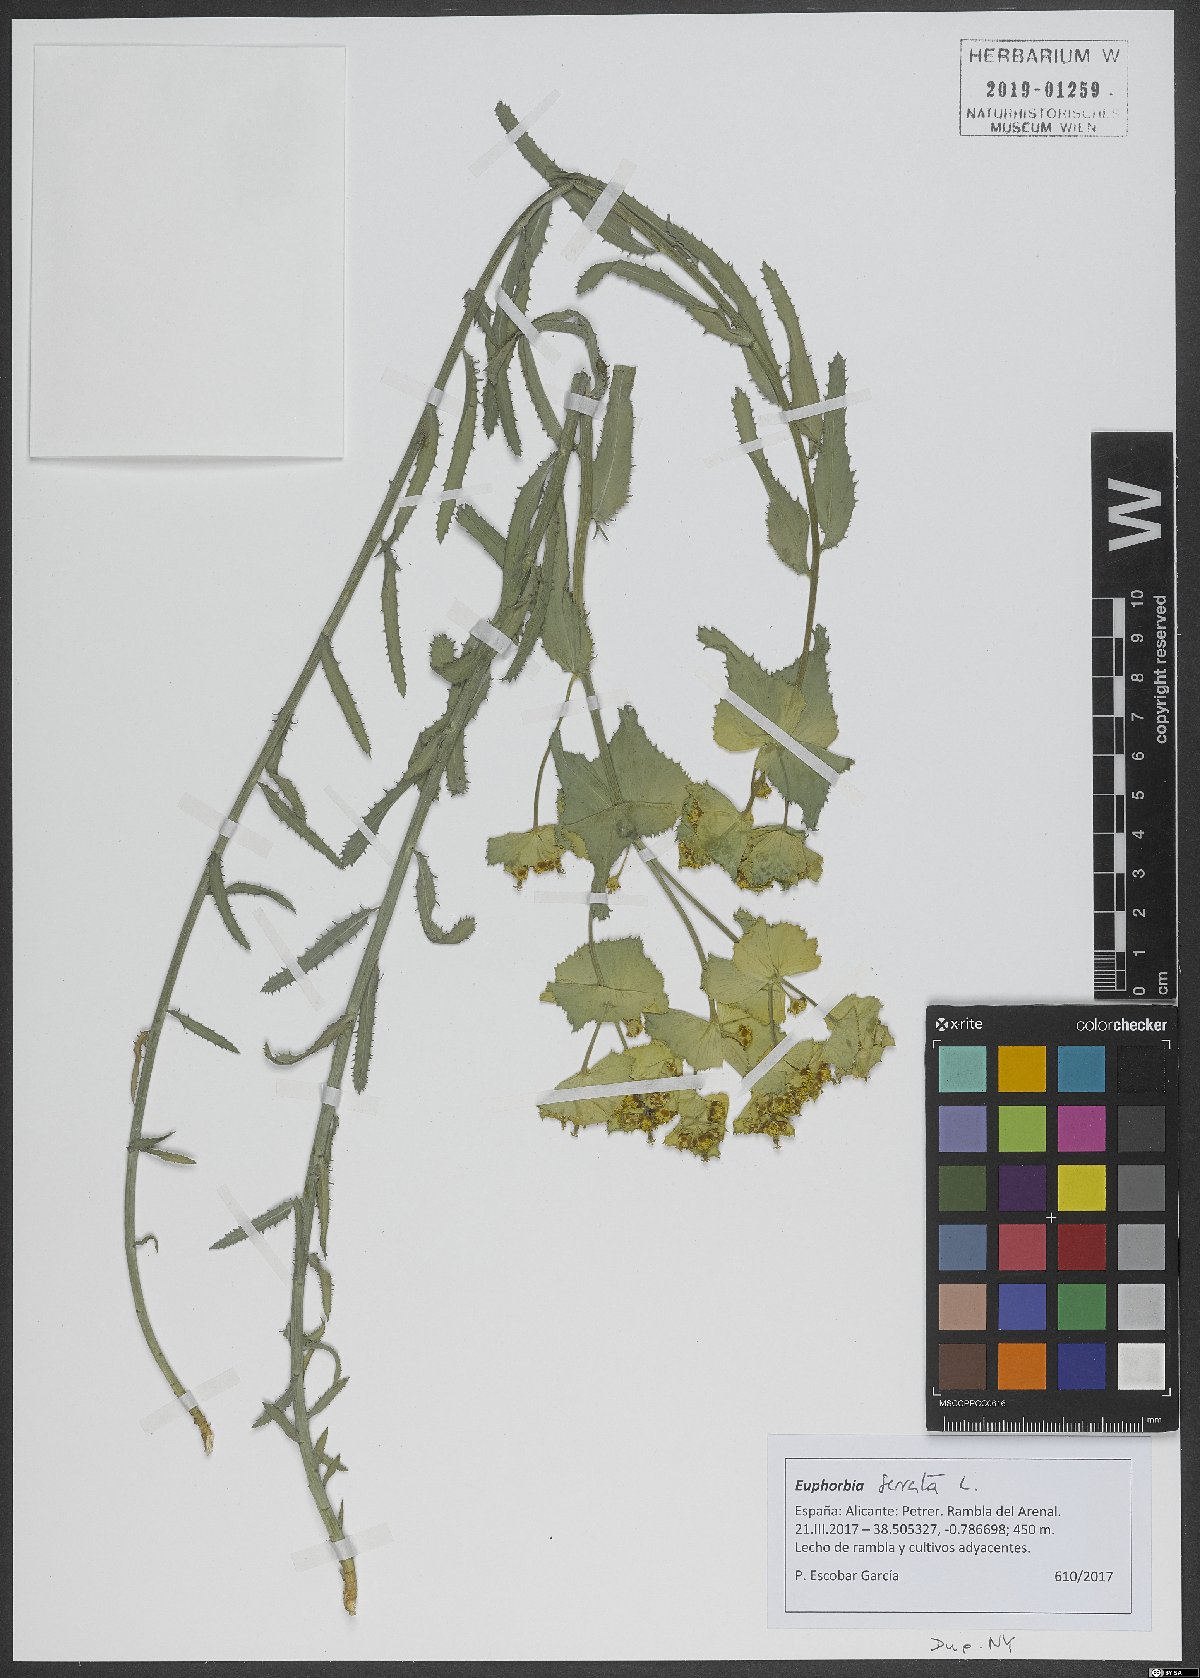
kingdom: Plantae
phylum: Tracheophyta
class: Magnoliopsida
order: Malpighiales
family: Euphorbiaceae
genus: Euphorbia
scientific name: Euphorbia serrata
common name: Serrate spurge
